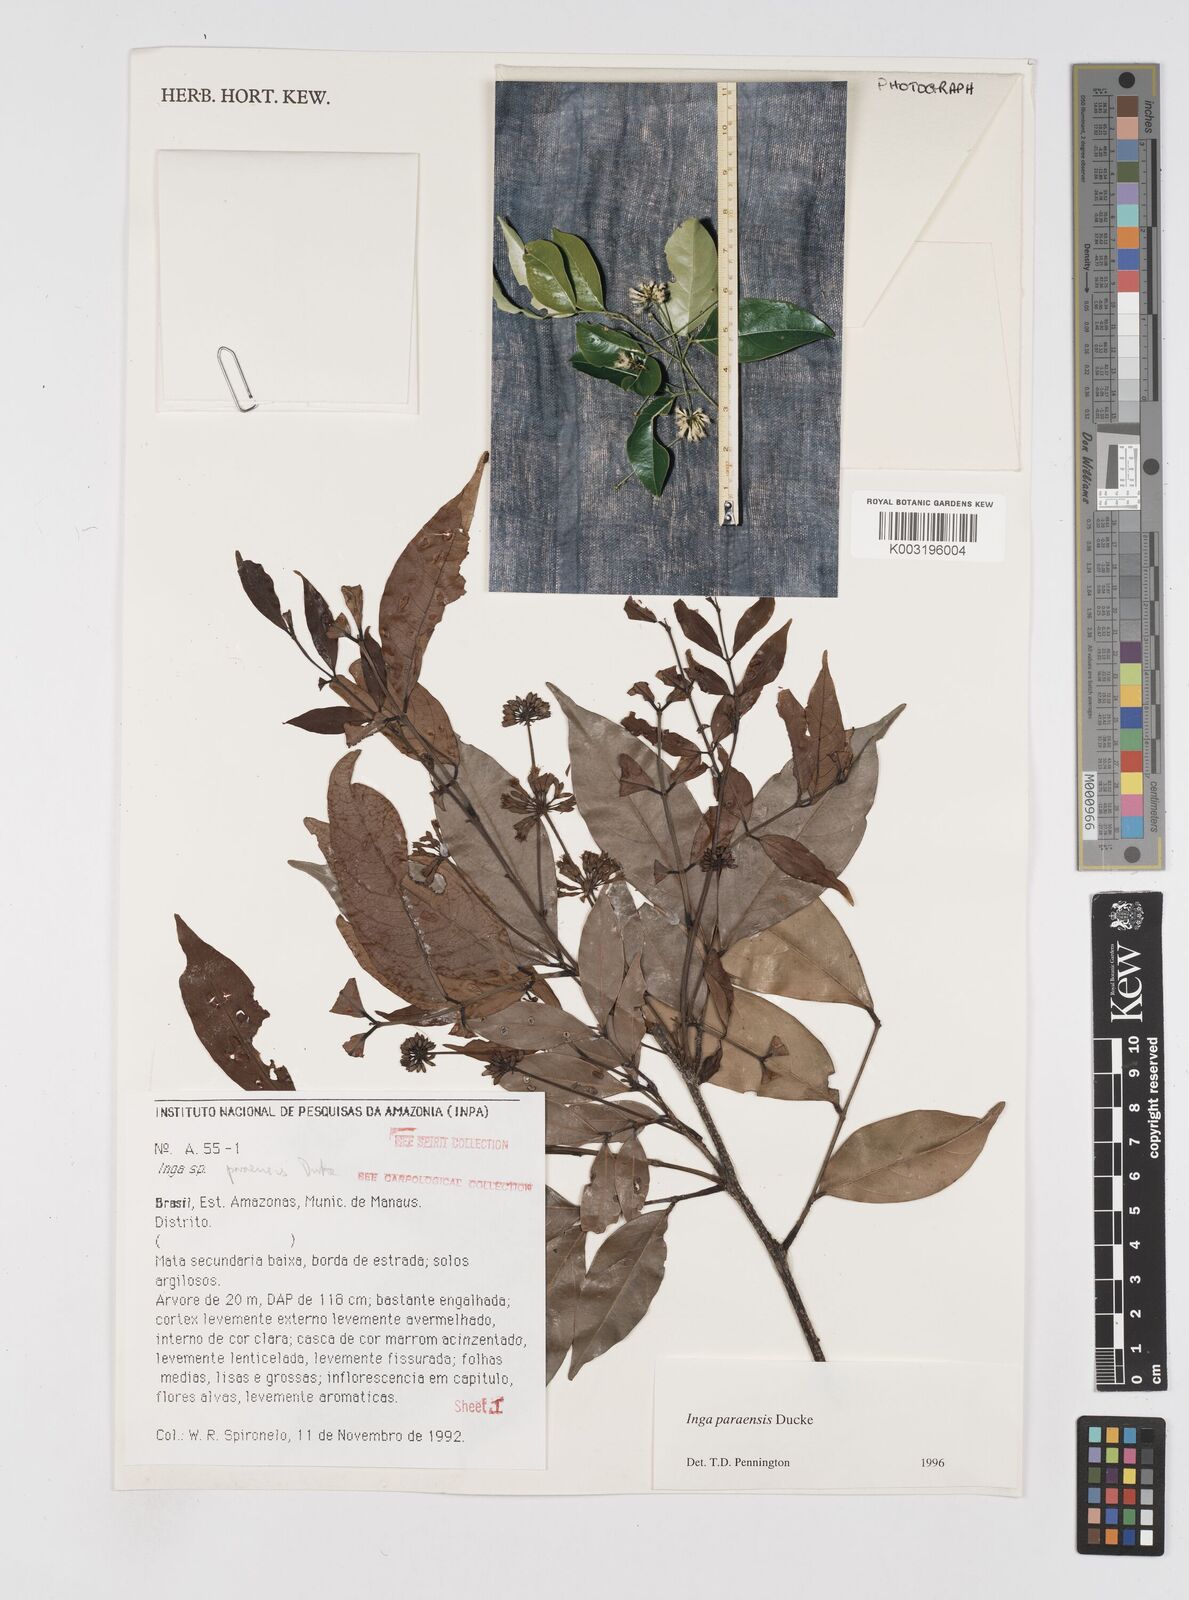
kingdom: Plantae
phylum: Tracheophyta
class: Magnoliopsida
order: Fabales
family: Fabaceae
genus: Inga
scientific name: Inga paraensis
